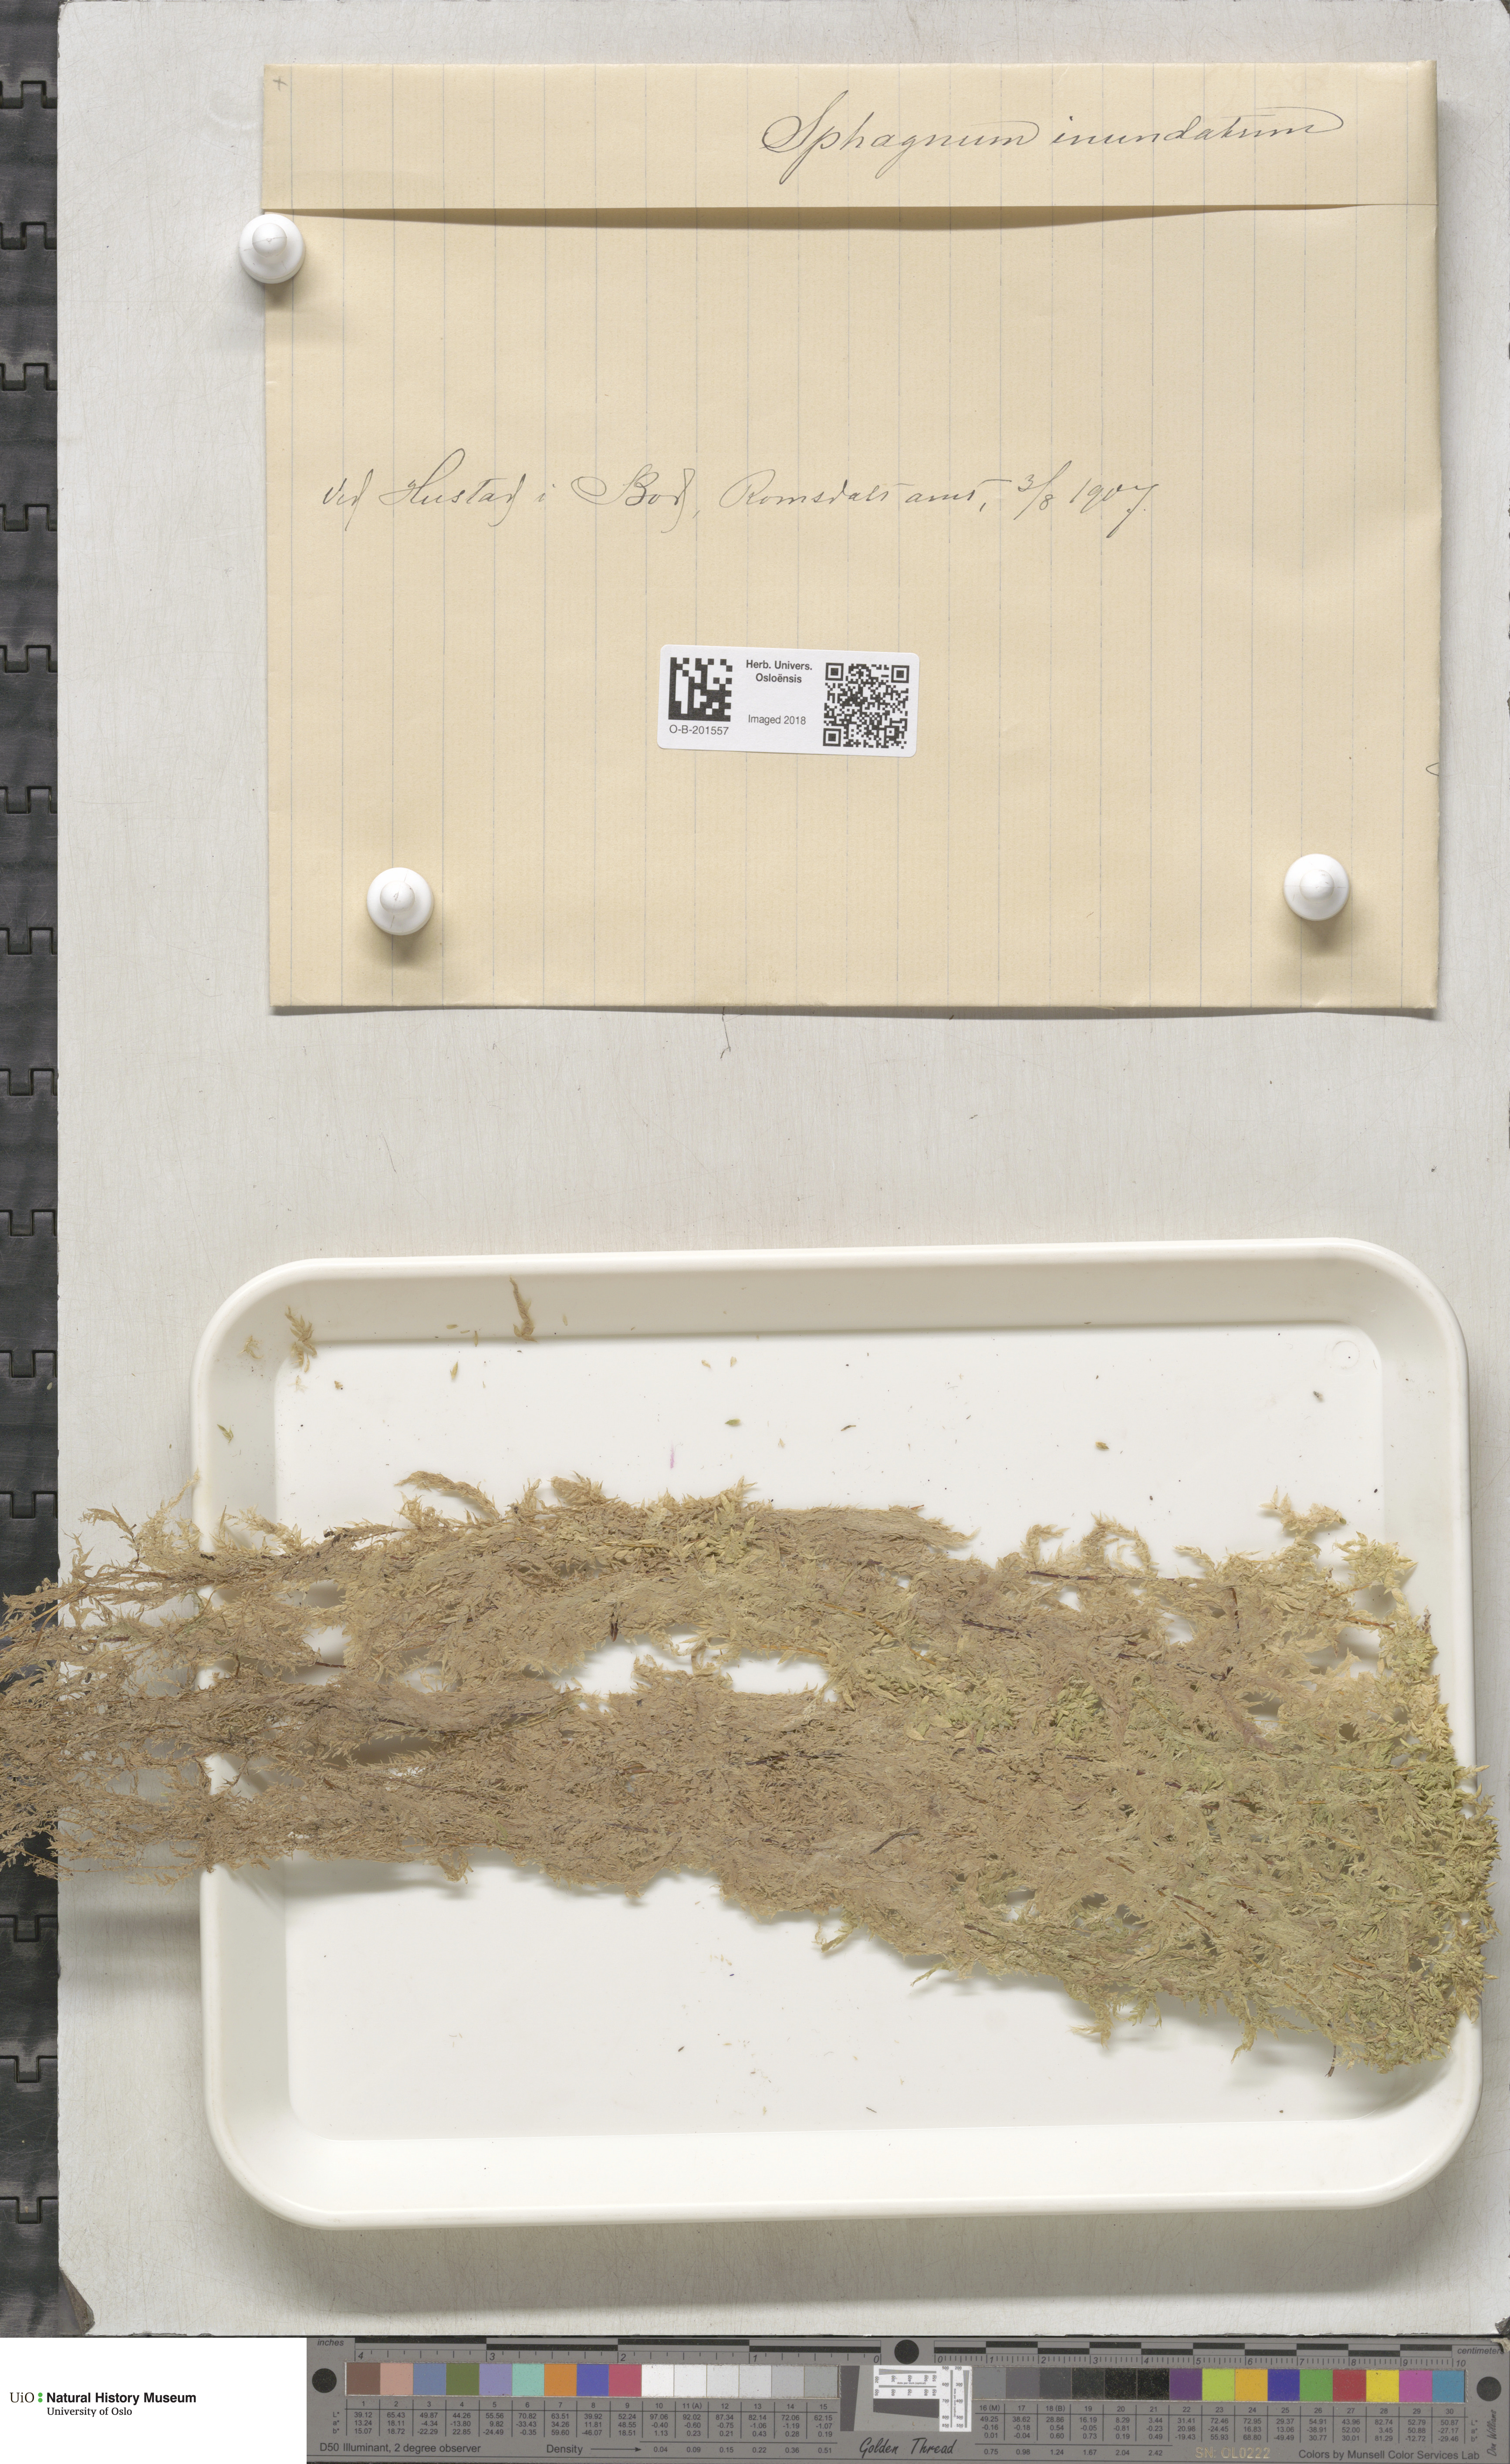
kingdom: Plantae
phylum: Bryophyta
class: Sphagnopsida
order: Sphagnales
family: Sphagnaceae
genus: Sphagnum
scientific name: Sphagnum inundatum
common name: Lesser cow-horn bog-moss
